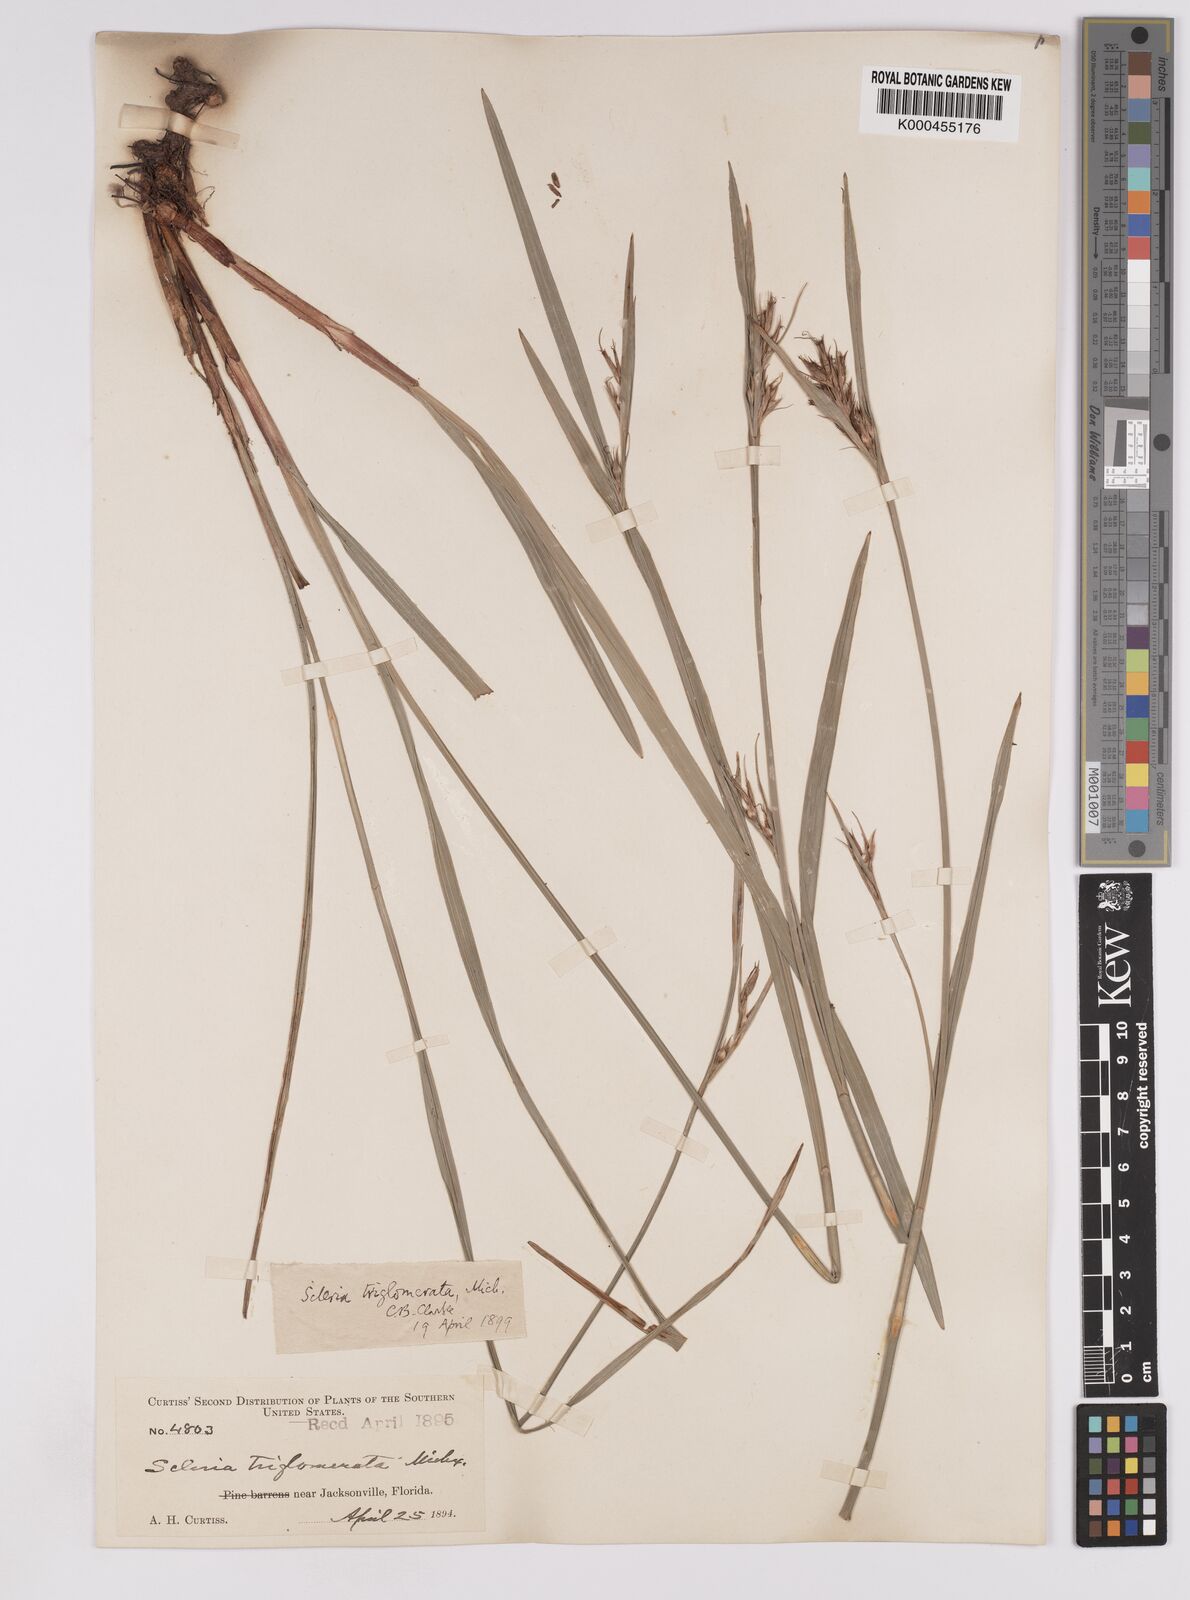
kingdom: Plantae
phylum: Tracheophyta
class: Liliopsida
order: Poales
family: Cyperaceae
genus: Scleria
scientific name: Scleria triglomerata
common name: Whip nutrush
